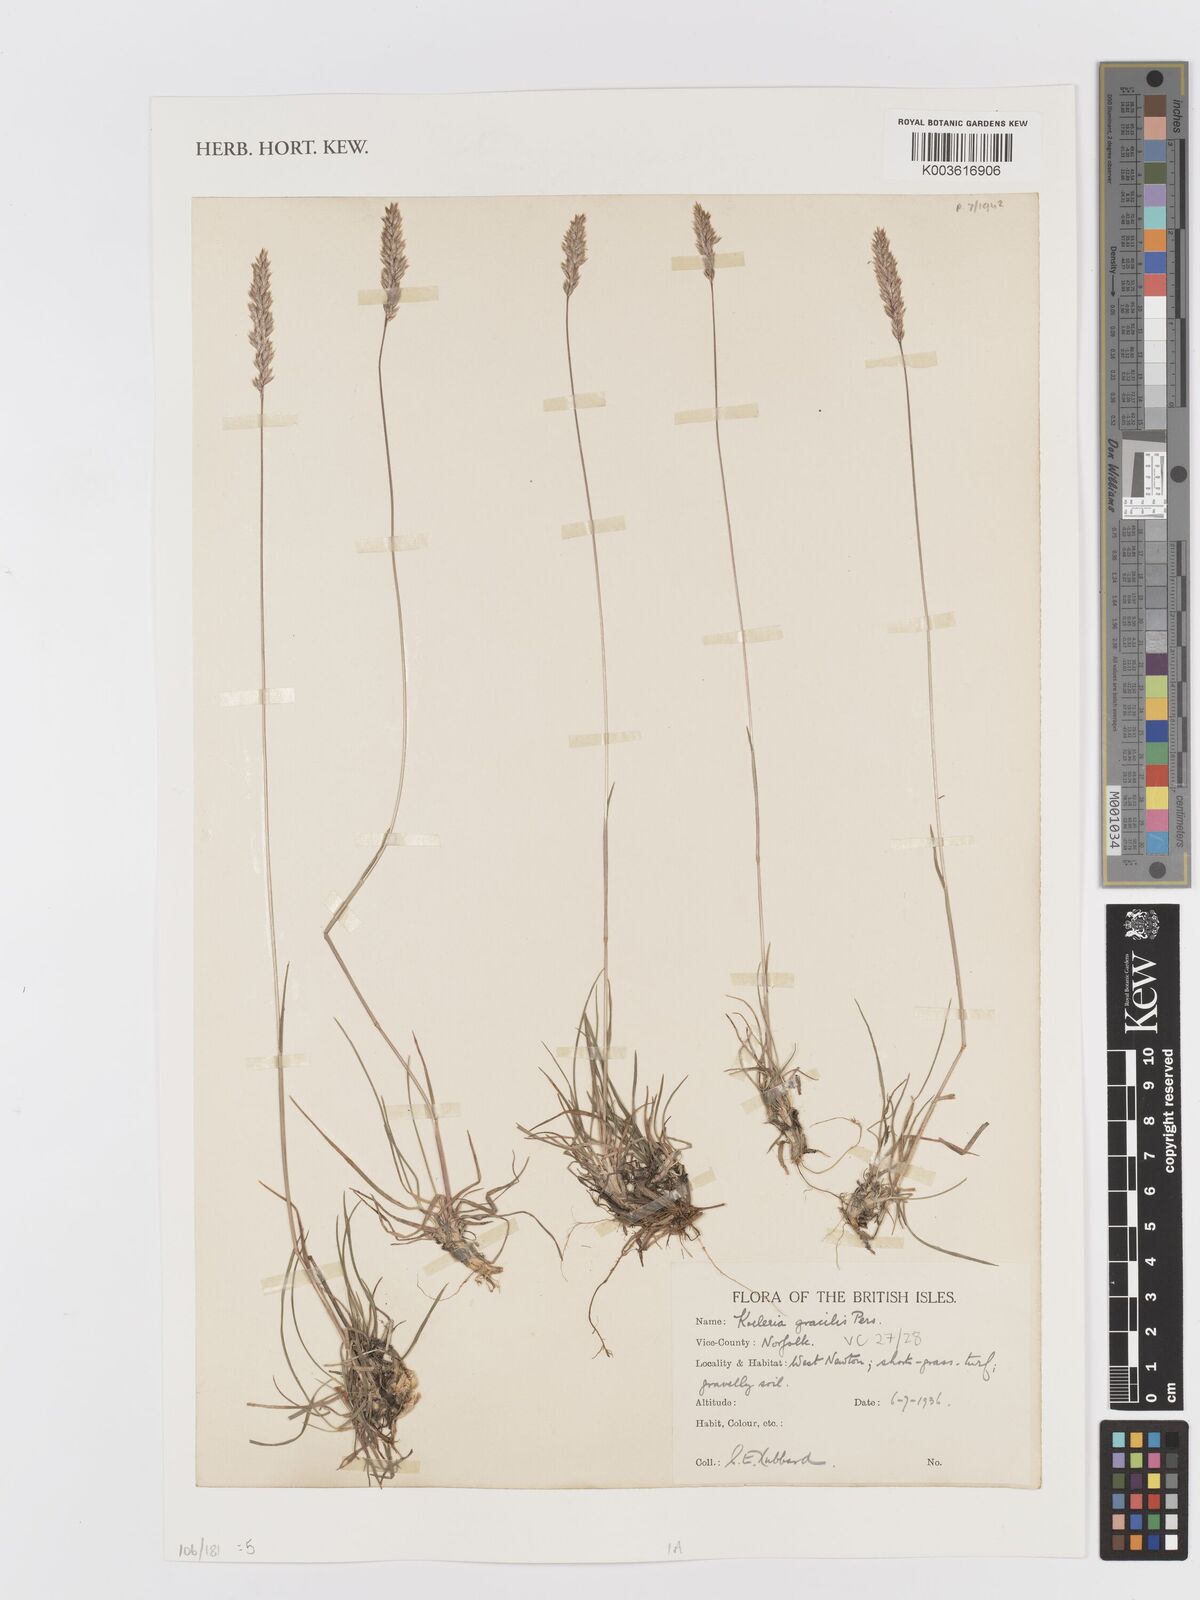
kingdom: Plantae
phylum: Tracheophyta
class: Liliopsida
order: Poales
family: Poaceae
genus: Koeleria
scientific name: Koeleria macrantha
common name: Crested hair-grass
